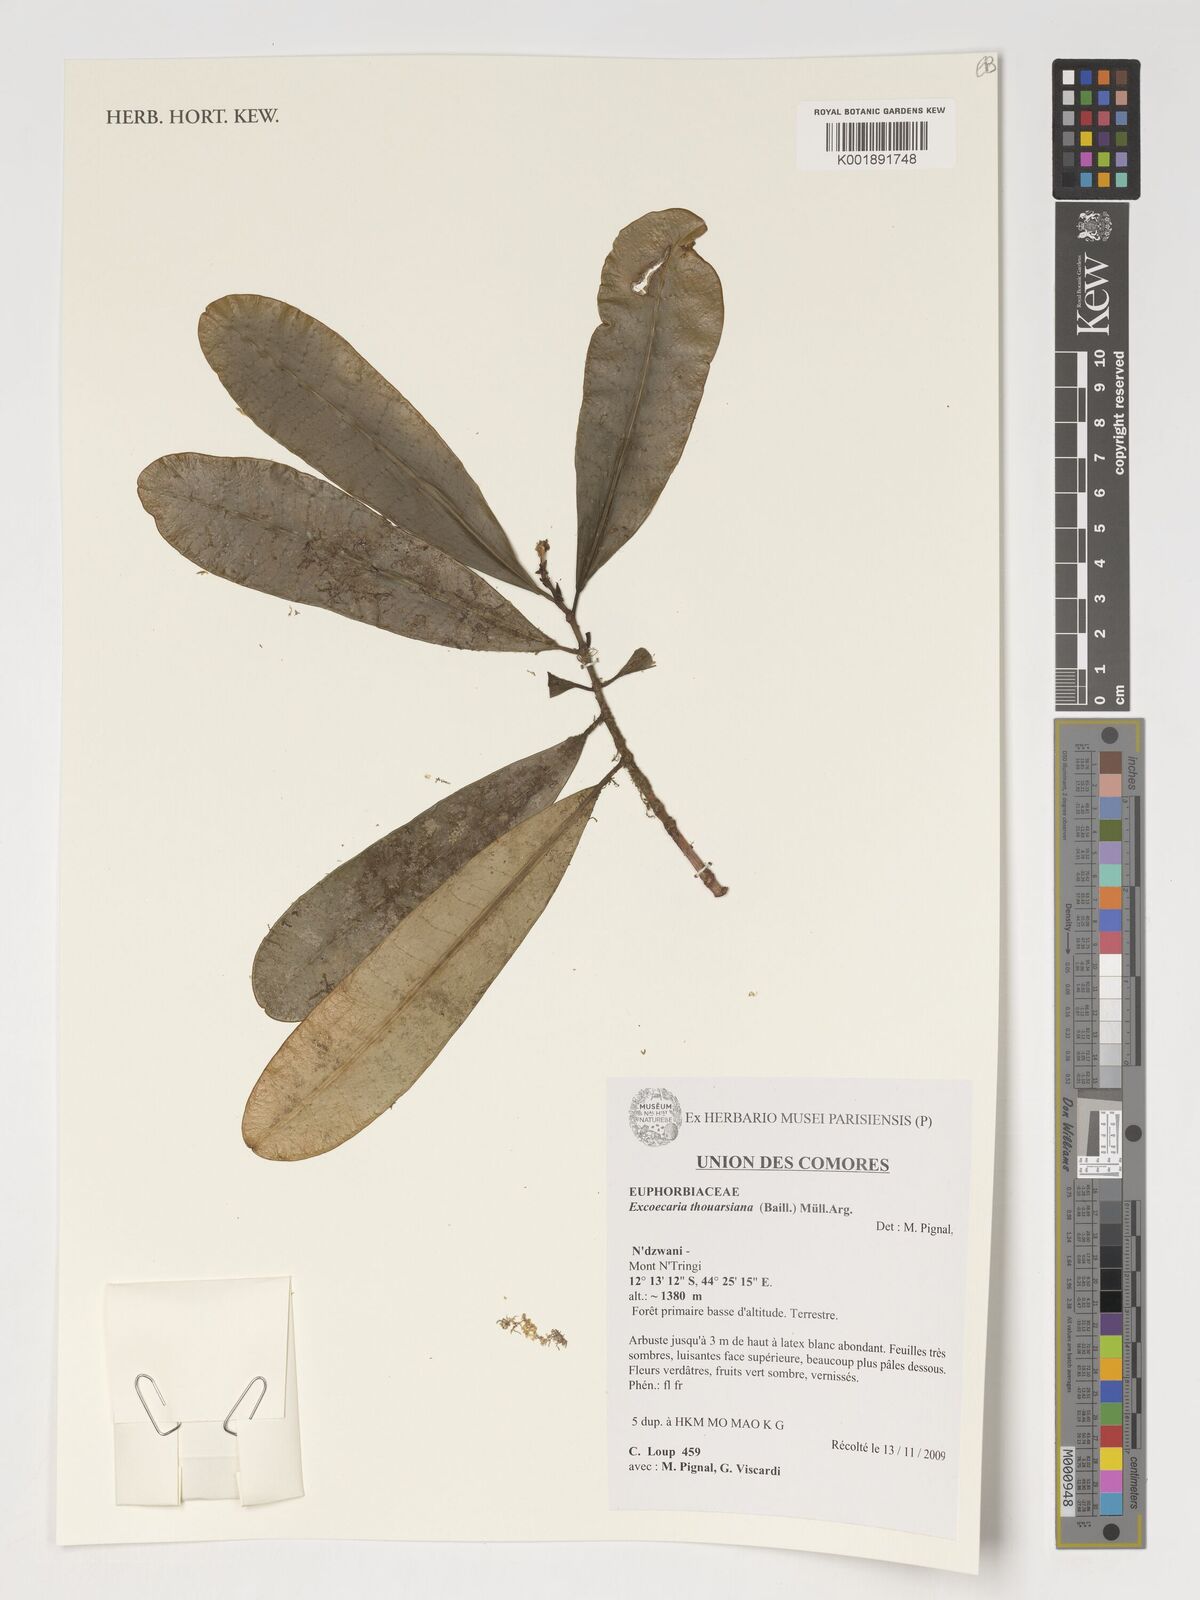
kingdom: Plantae
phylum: Tracheophyta
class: Magnoliopsida
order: Malpighiales
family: Euphorbiaceae
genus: Excoecaria
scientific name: Excoecaria thouarsiana
